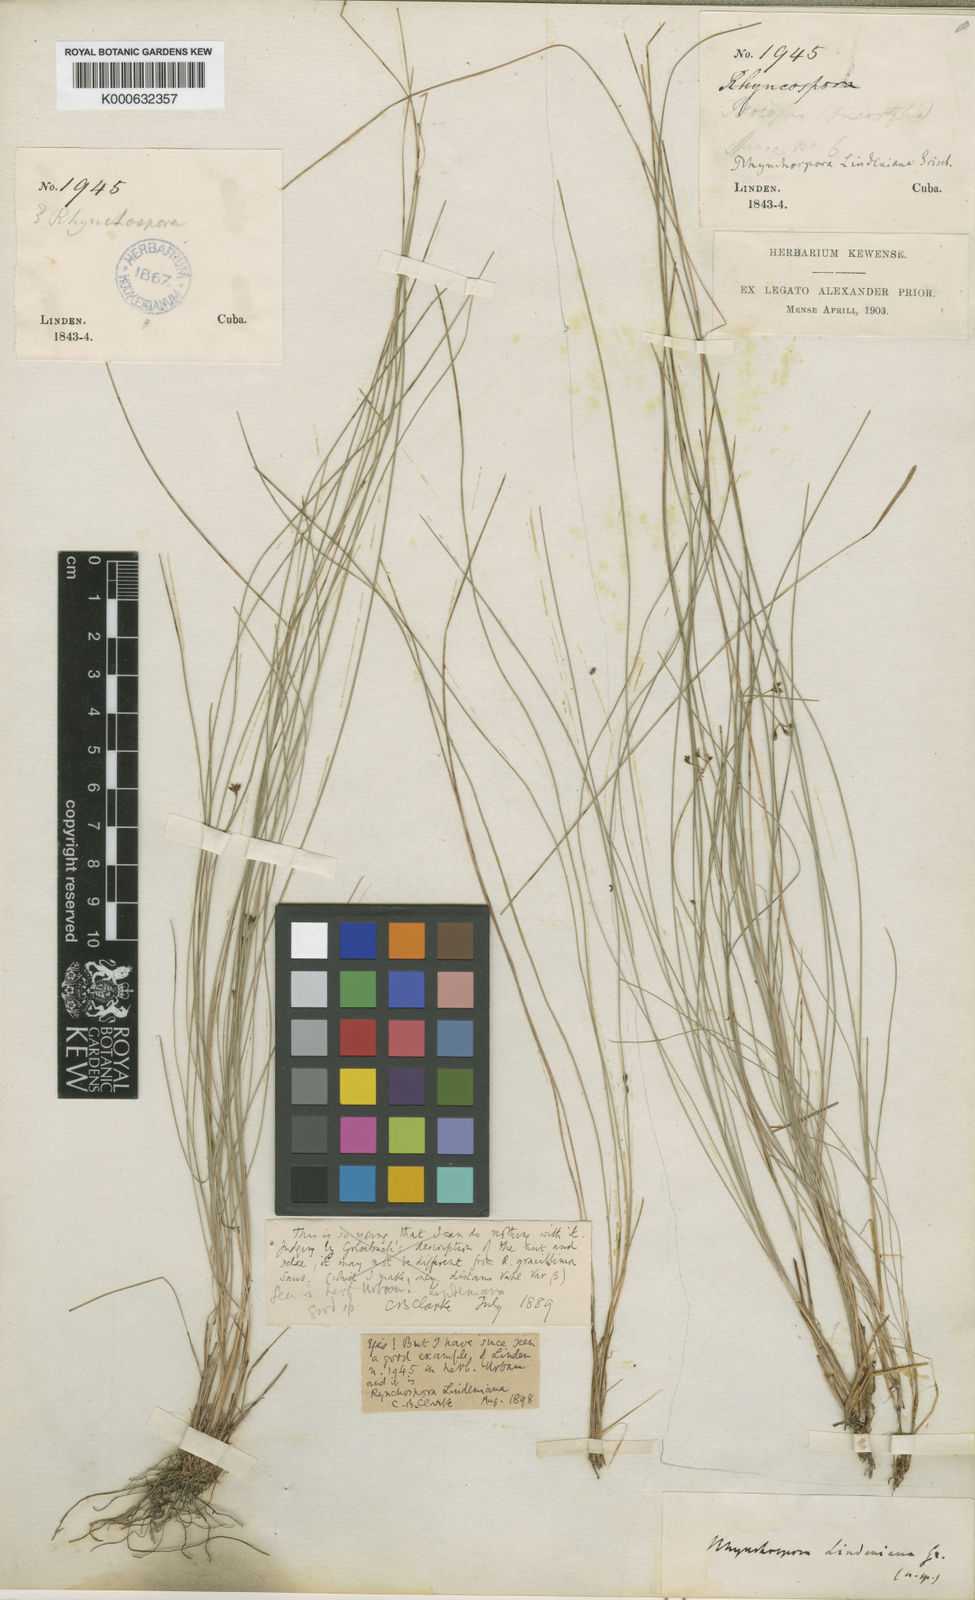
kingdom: Plantae
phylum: Tracheophyta
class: Liliopsida
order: Poales
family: Cyperaceae
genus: Rhynchospora
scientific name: Rhynchospora pallida
